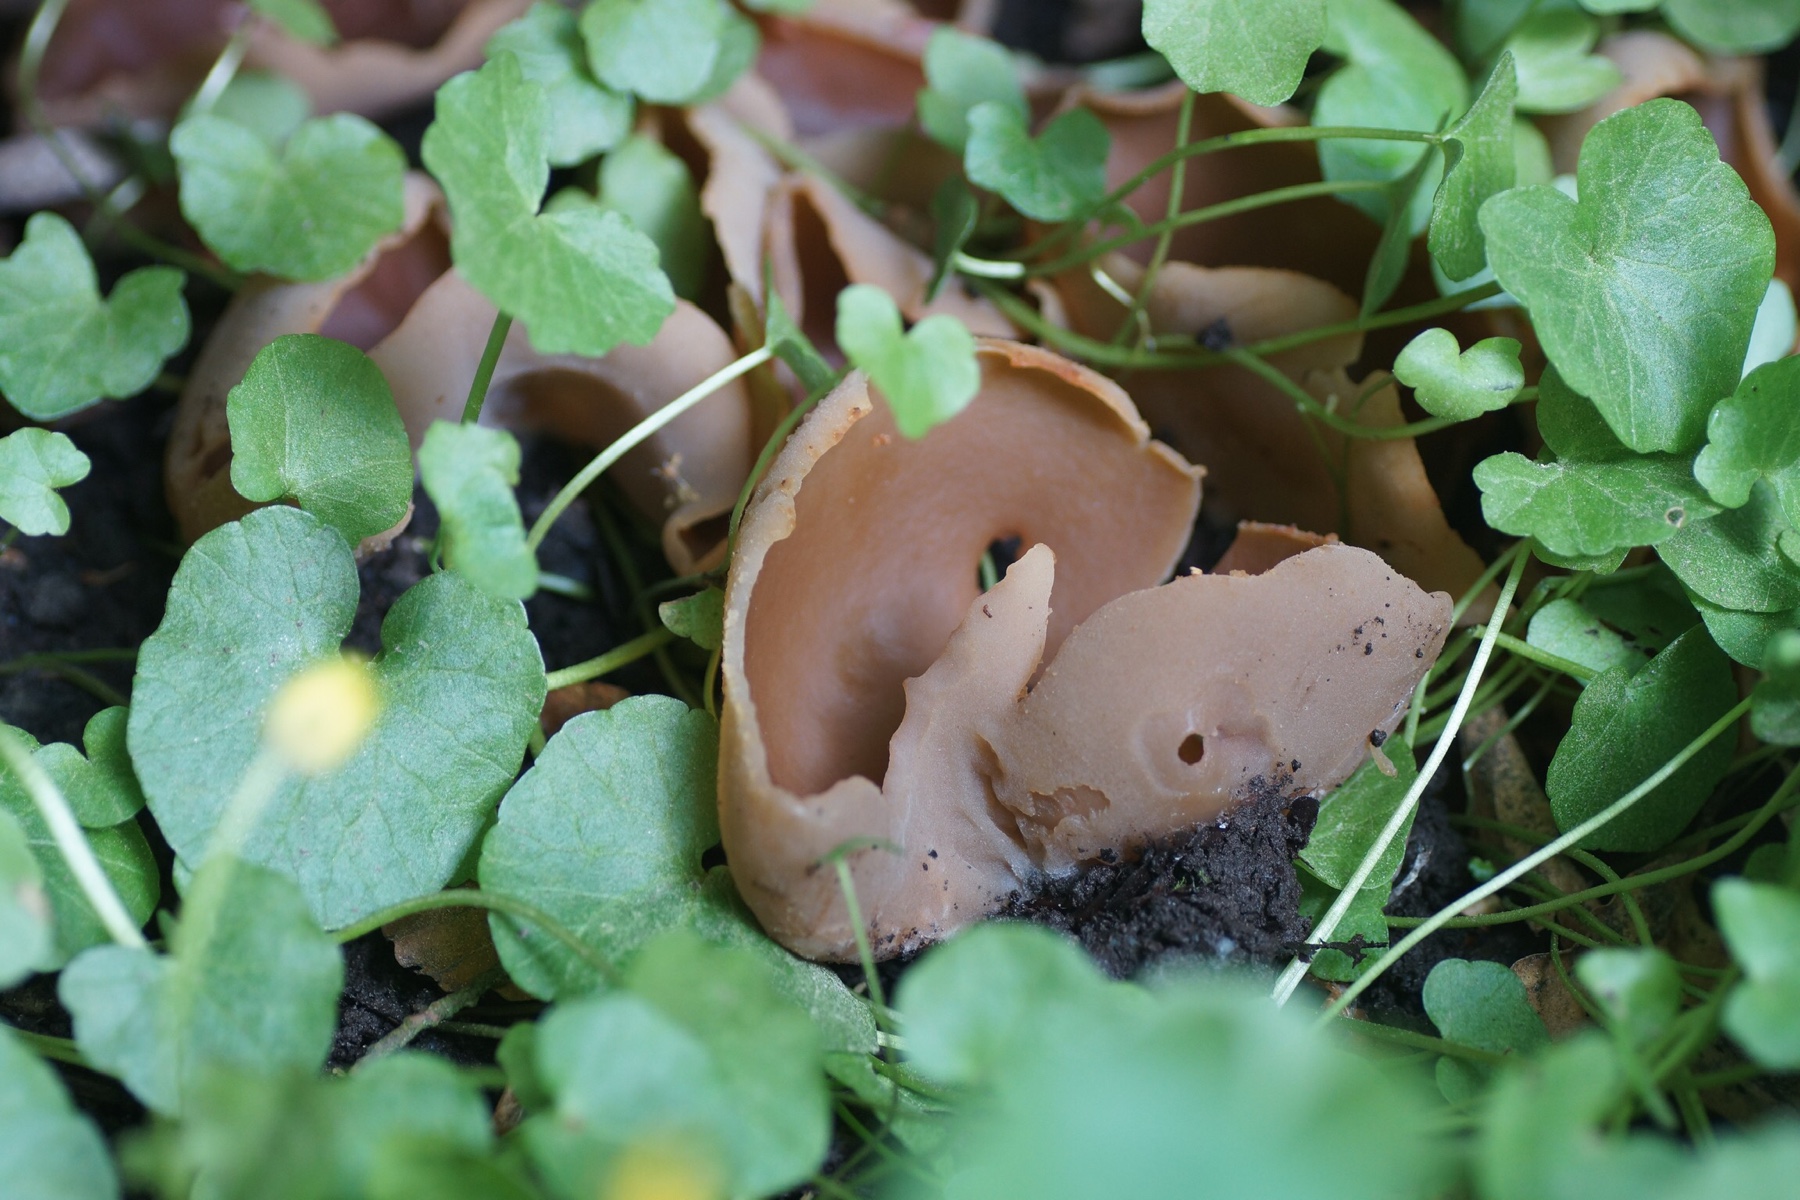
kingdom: Fungi
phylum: Ascomycota
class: Pezizomycetes
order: Pezizales
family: Pezizaceae
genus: Peziza
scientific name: Peziza
